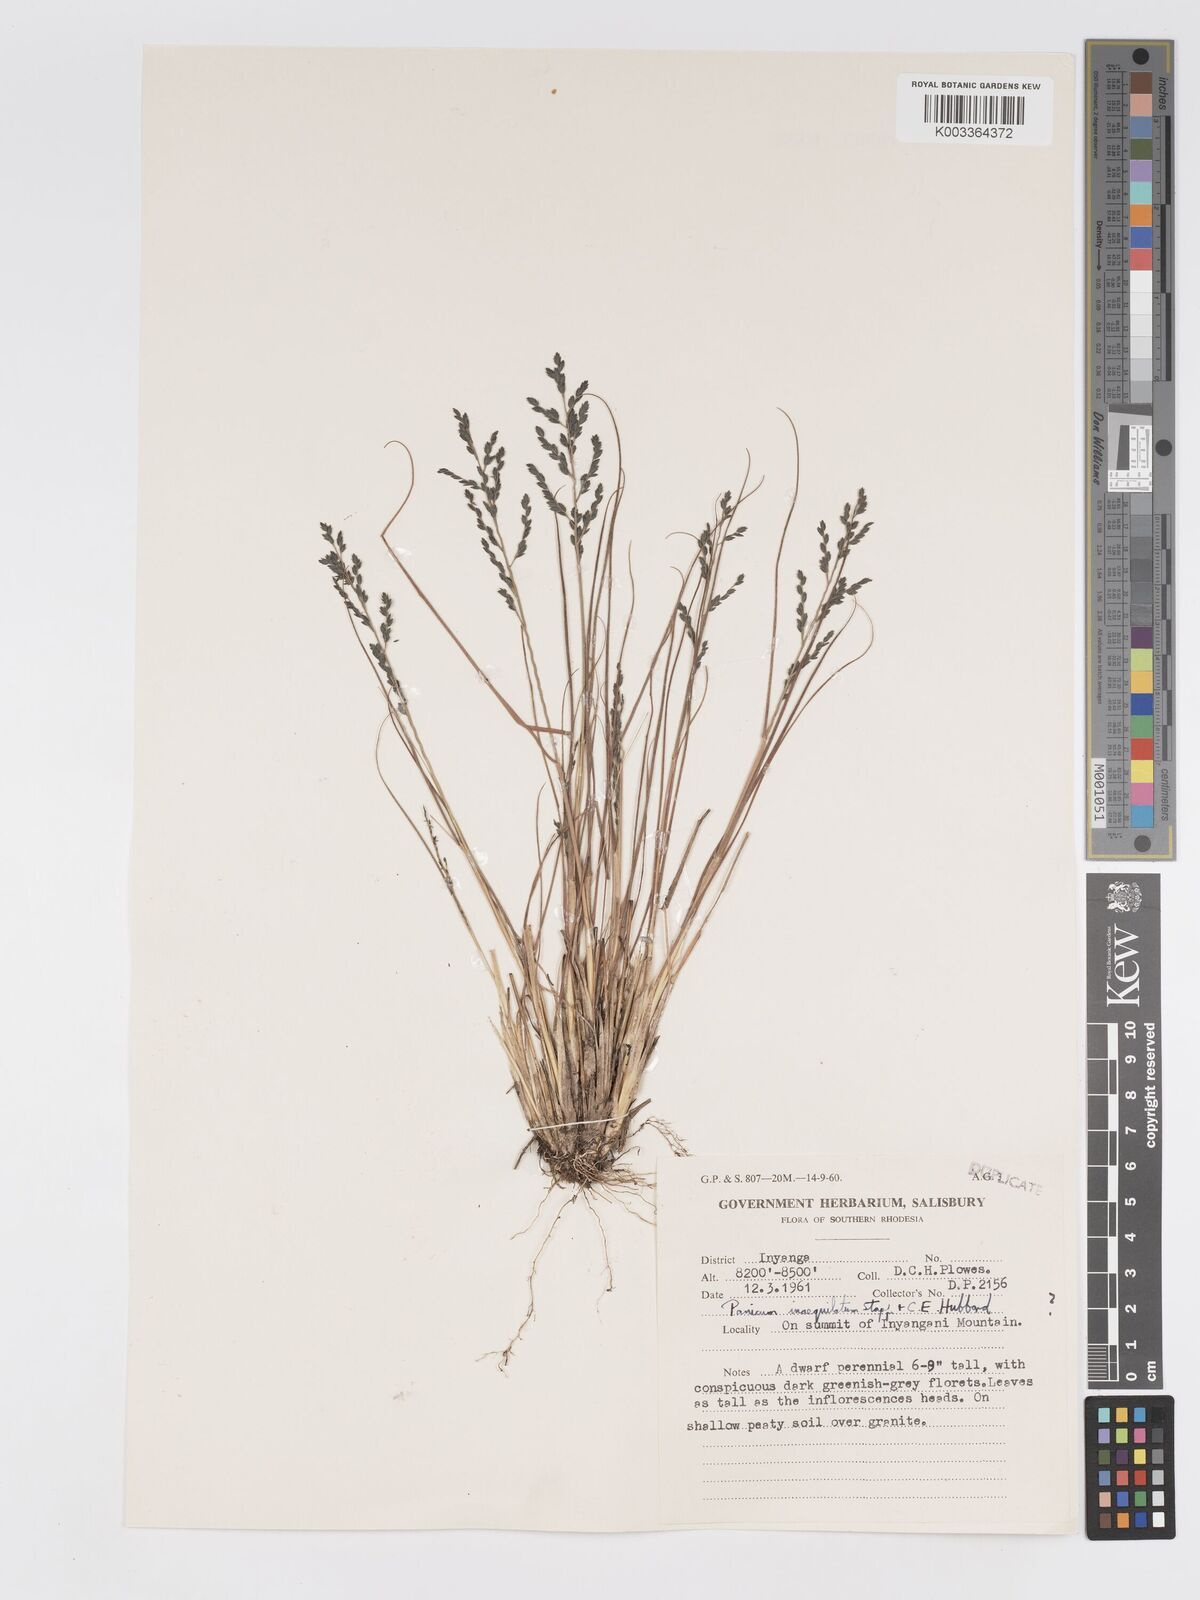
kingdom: Plantae
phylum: Tracheophyta
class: Liliopsida
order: Poales
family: Poaceae
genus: Eragrostis
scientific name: Eragrostis racemosa
